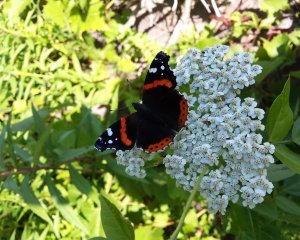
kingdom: Animalia
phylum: Arthropoda
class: Insecta
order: Lepidoptera
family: Nymphalidae
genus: Vanessa
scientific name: Vanessa atalanta
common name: Red Admiral
